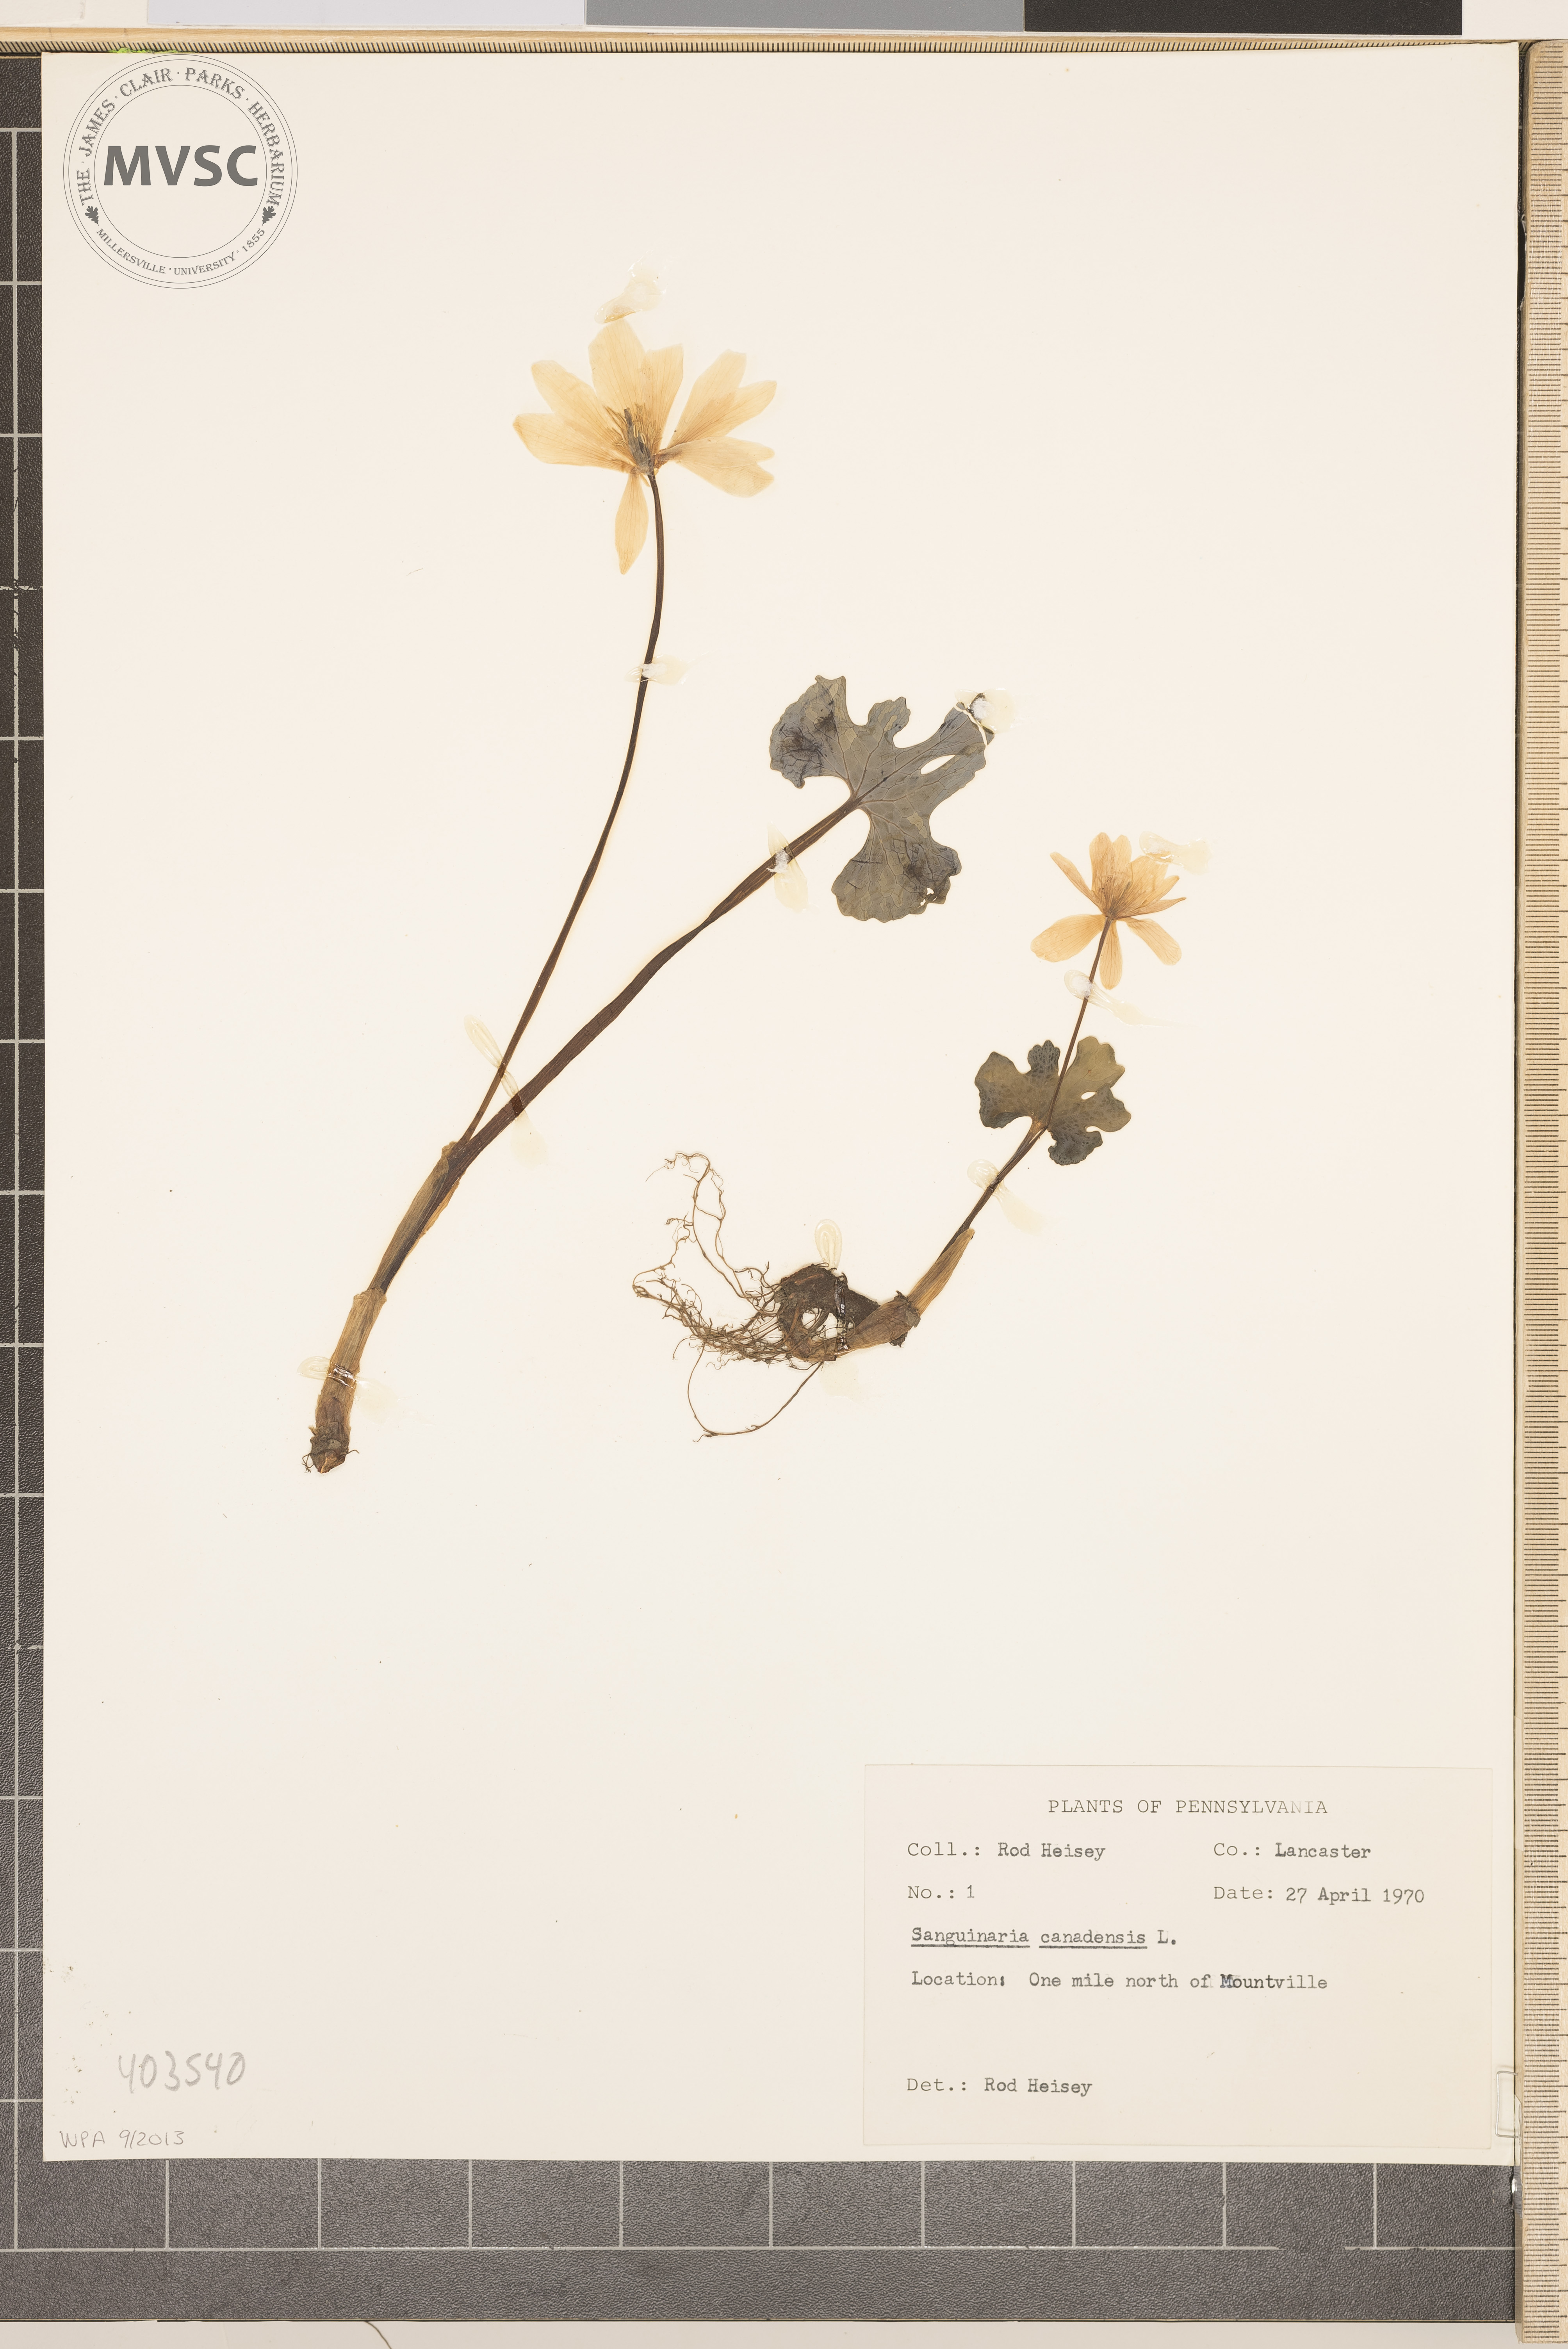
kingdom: Plantae
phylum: Tracheophyta
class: Magnoliopsida
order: Ranunculales
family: Papaveraceae
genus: Sanguinaria
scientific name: Sanguinaria canadensis
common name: Bloodroot
